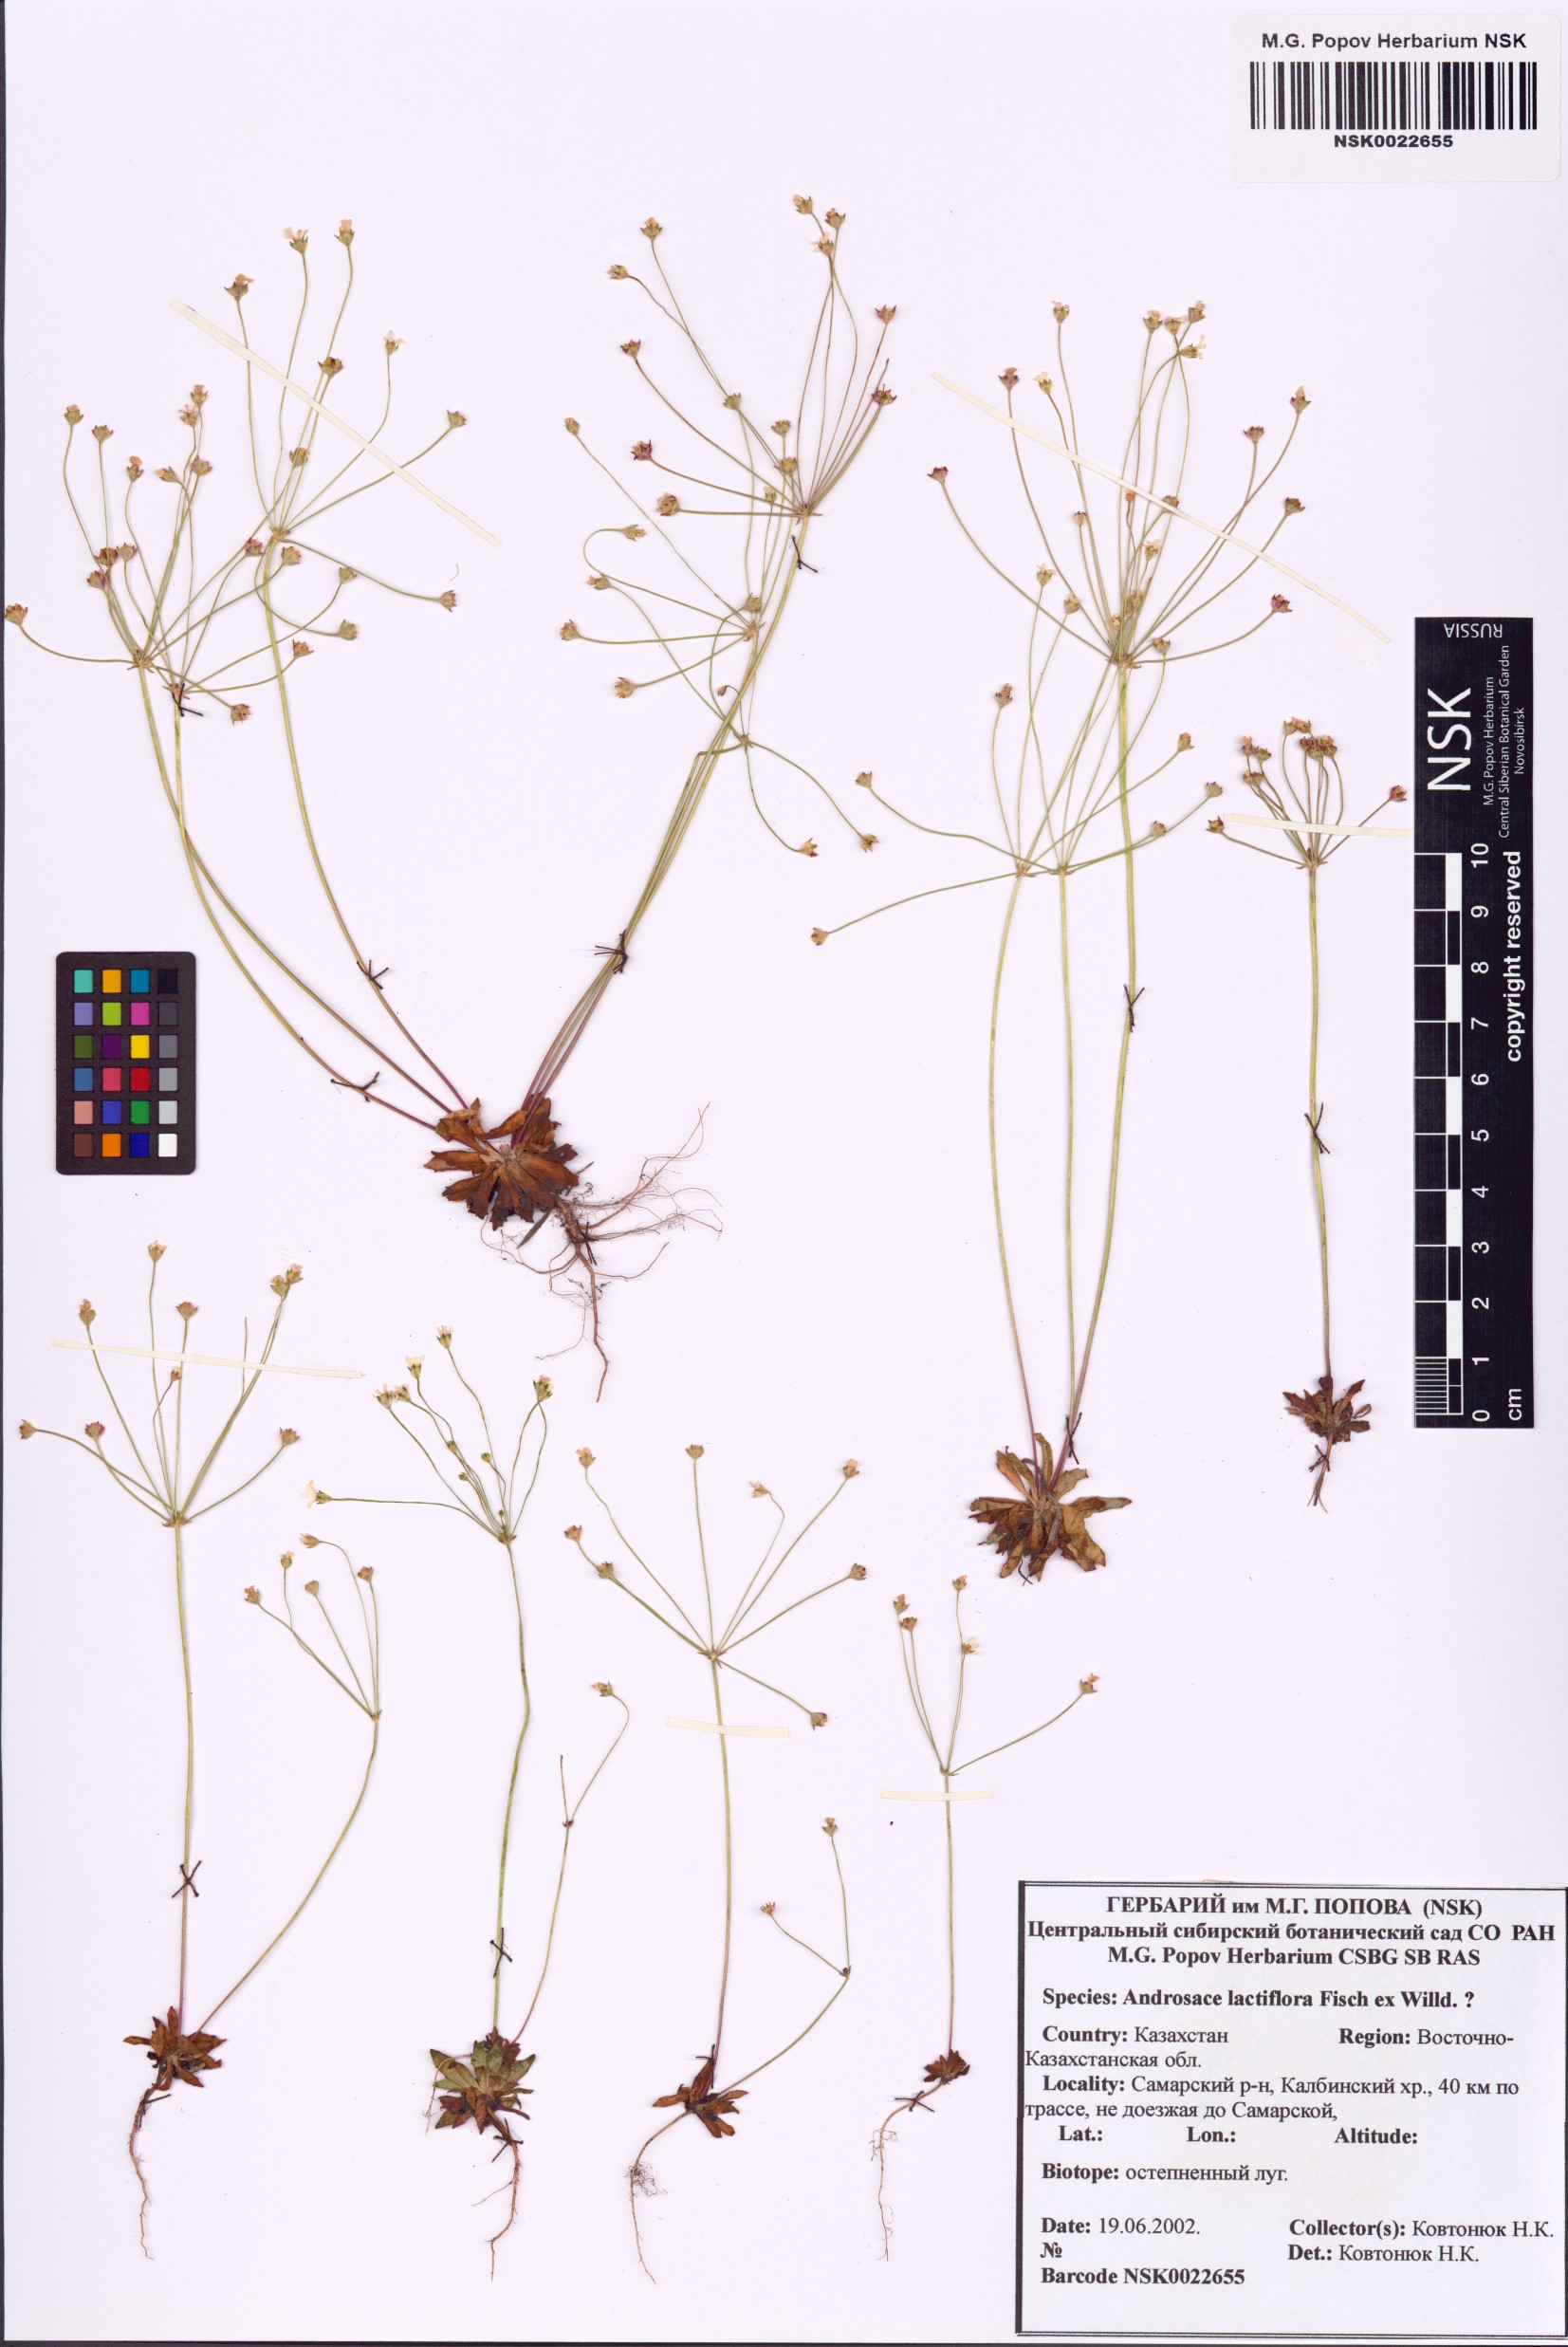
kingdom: Plantae
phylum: Tracheophyta
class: Magnoliopsida
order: Ericales
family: Primulaceae
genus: Androsace
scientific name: Androsace lactiflora
